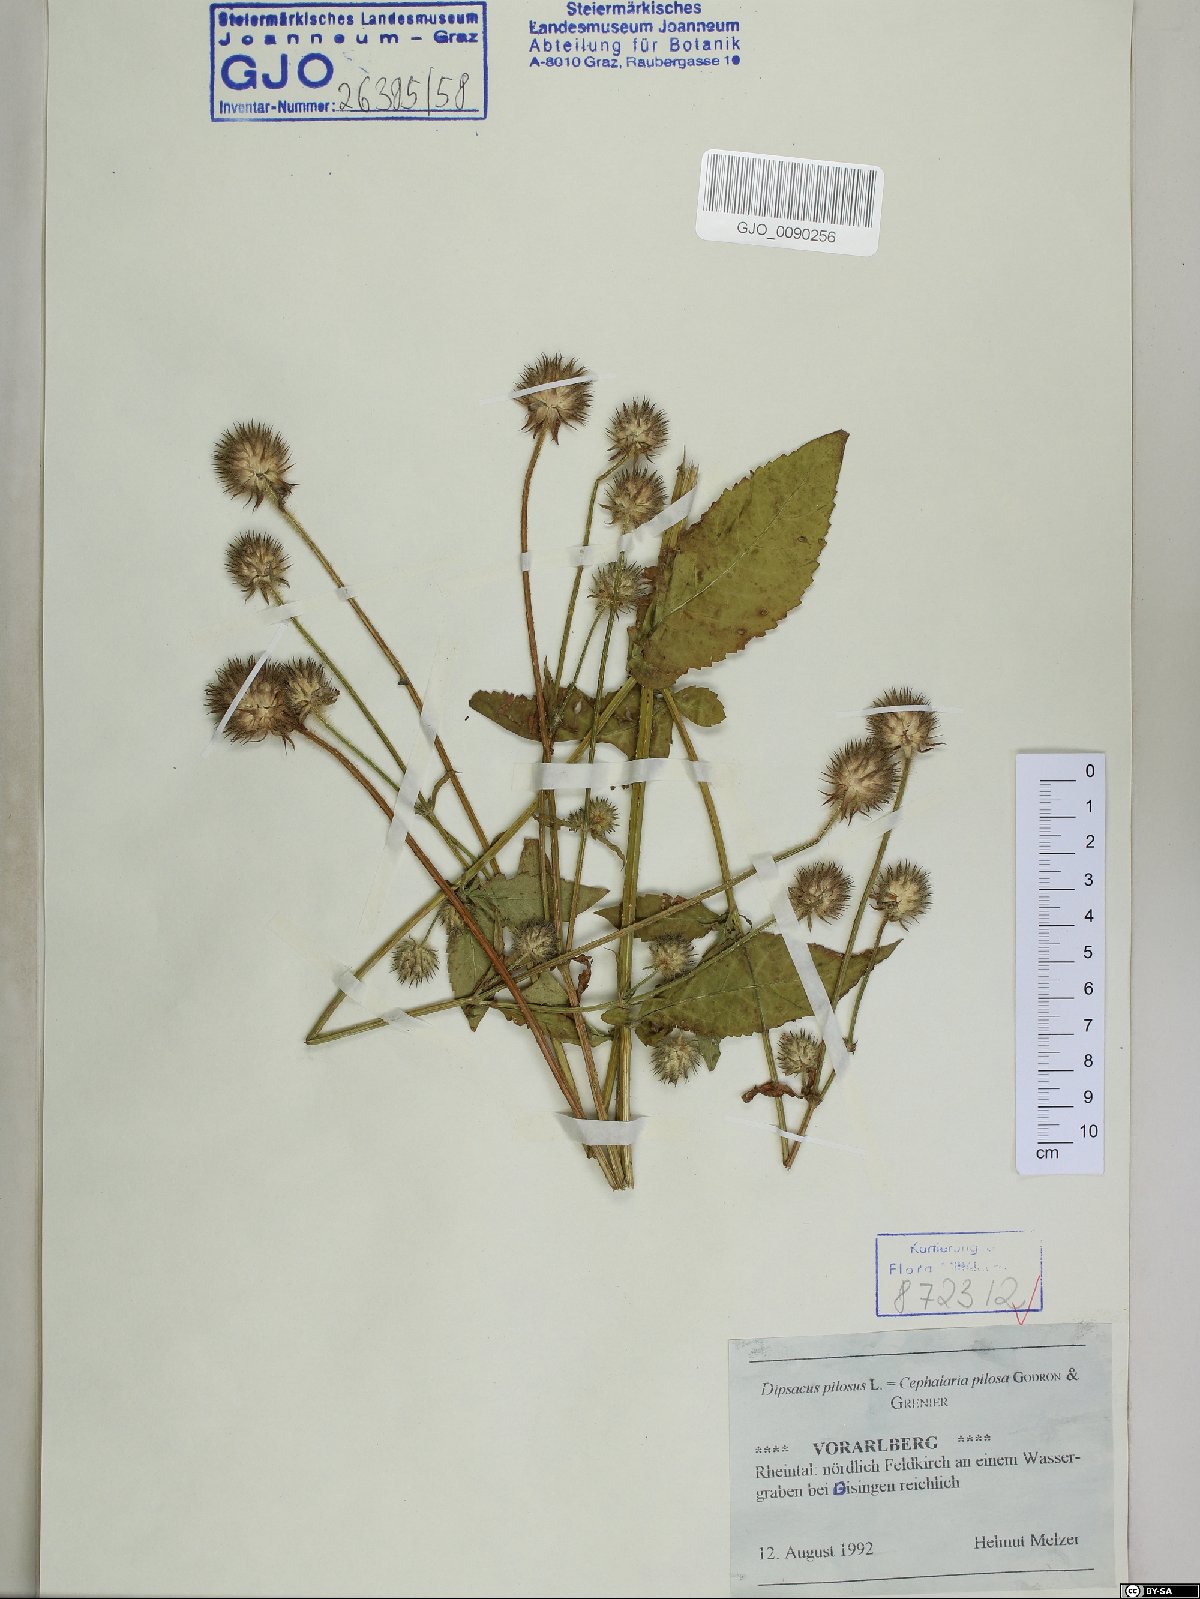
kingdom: Plantae
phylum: Tracheophyta
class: Magnoliopsida
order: Dipsacales
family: Caprifoliaceae
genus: Dipsacus
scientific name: Dipsacus pilosus
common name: Small teasel
